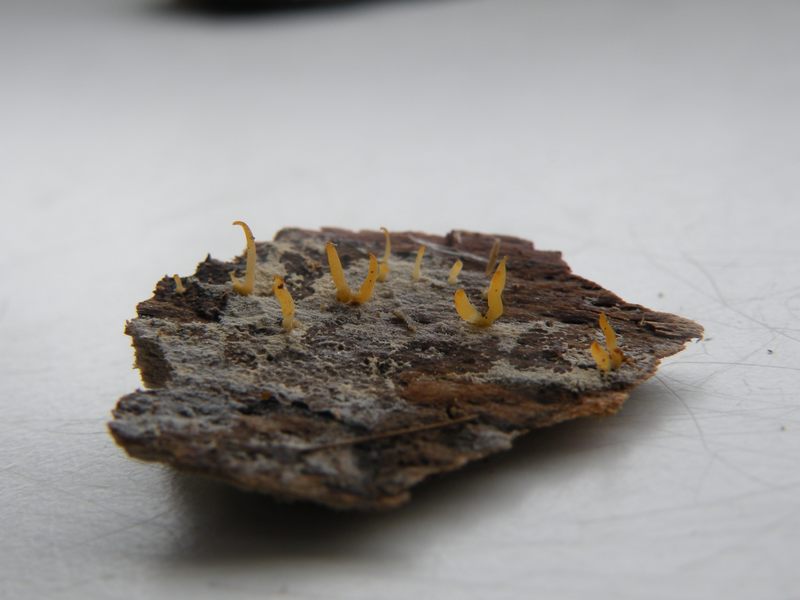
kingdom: Fungi
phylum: Basidiomycota
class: Dacrymycetes
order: Dacrymycetales
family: Dacrymycetaceae
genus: Calocera
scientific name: Calocera cornea
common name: liden guldgaffel
